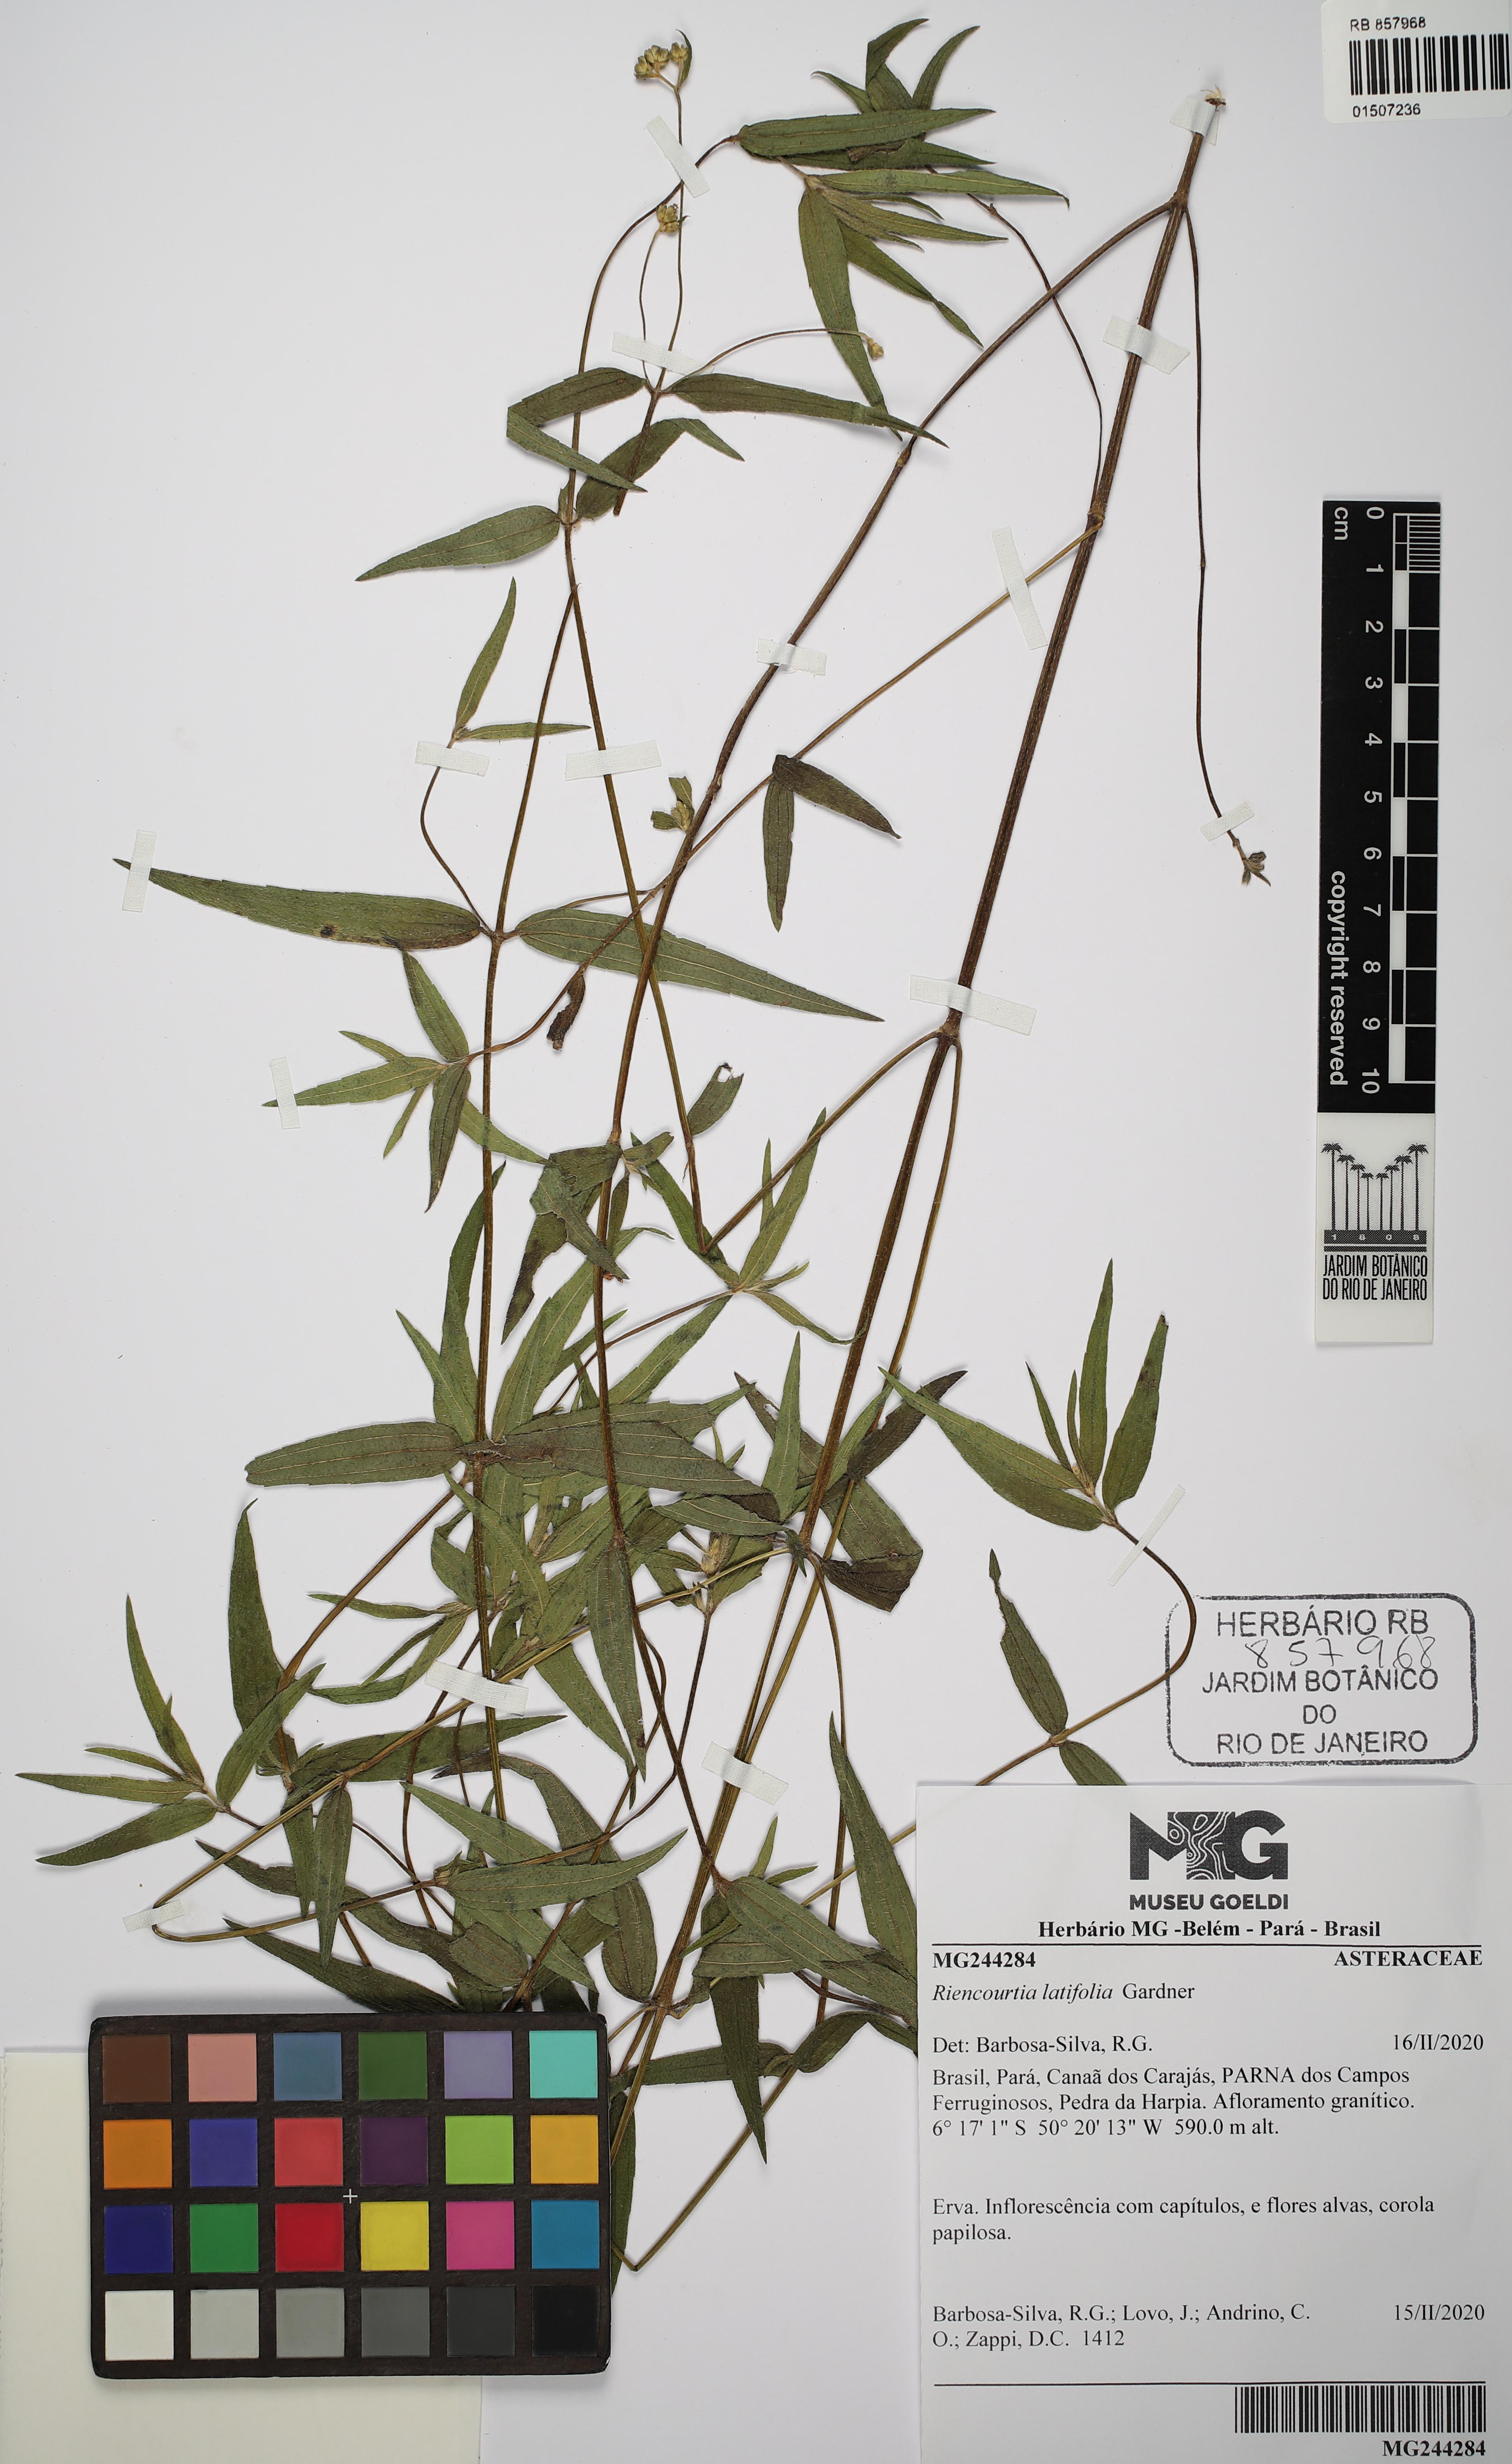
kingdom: Plantae
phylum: Tracheophyta
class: Magnoliopsida
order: Asterales
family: Asteraceae
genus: Riencourtia
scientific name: Riencourtia latifolia
